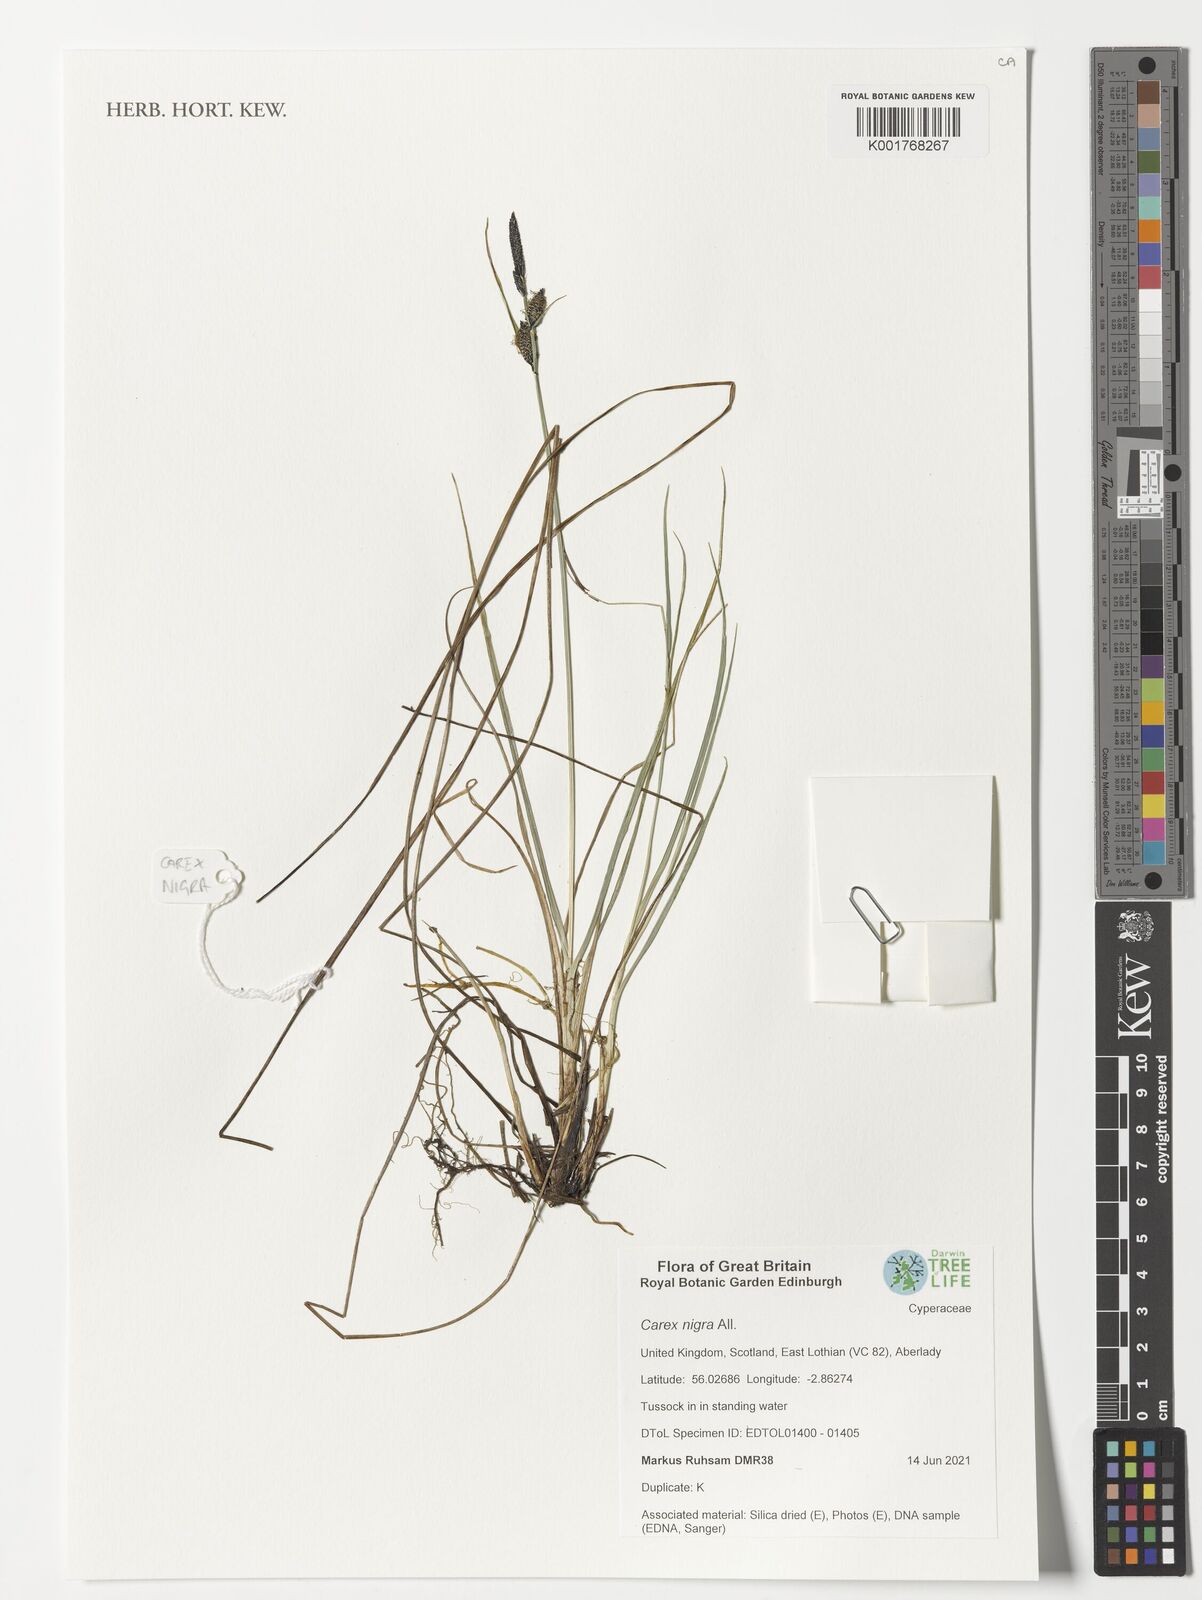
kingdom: Plantae
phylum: Tracheophyta
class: Liliopsida
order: Poales
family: Cyperaceae
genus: Carex
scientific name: Carex parviflora
